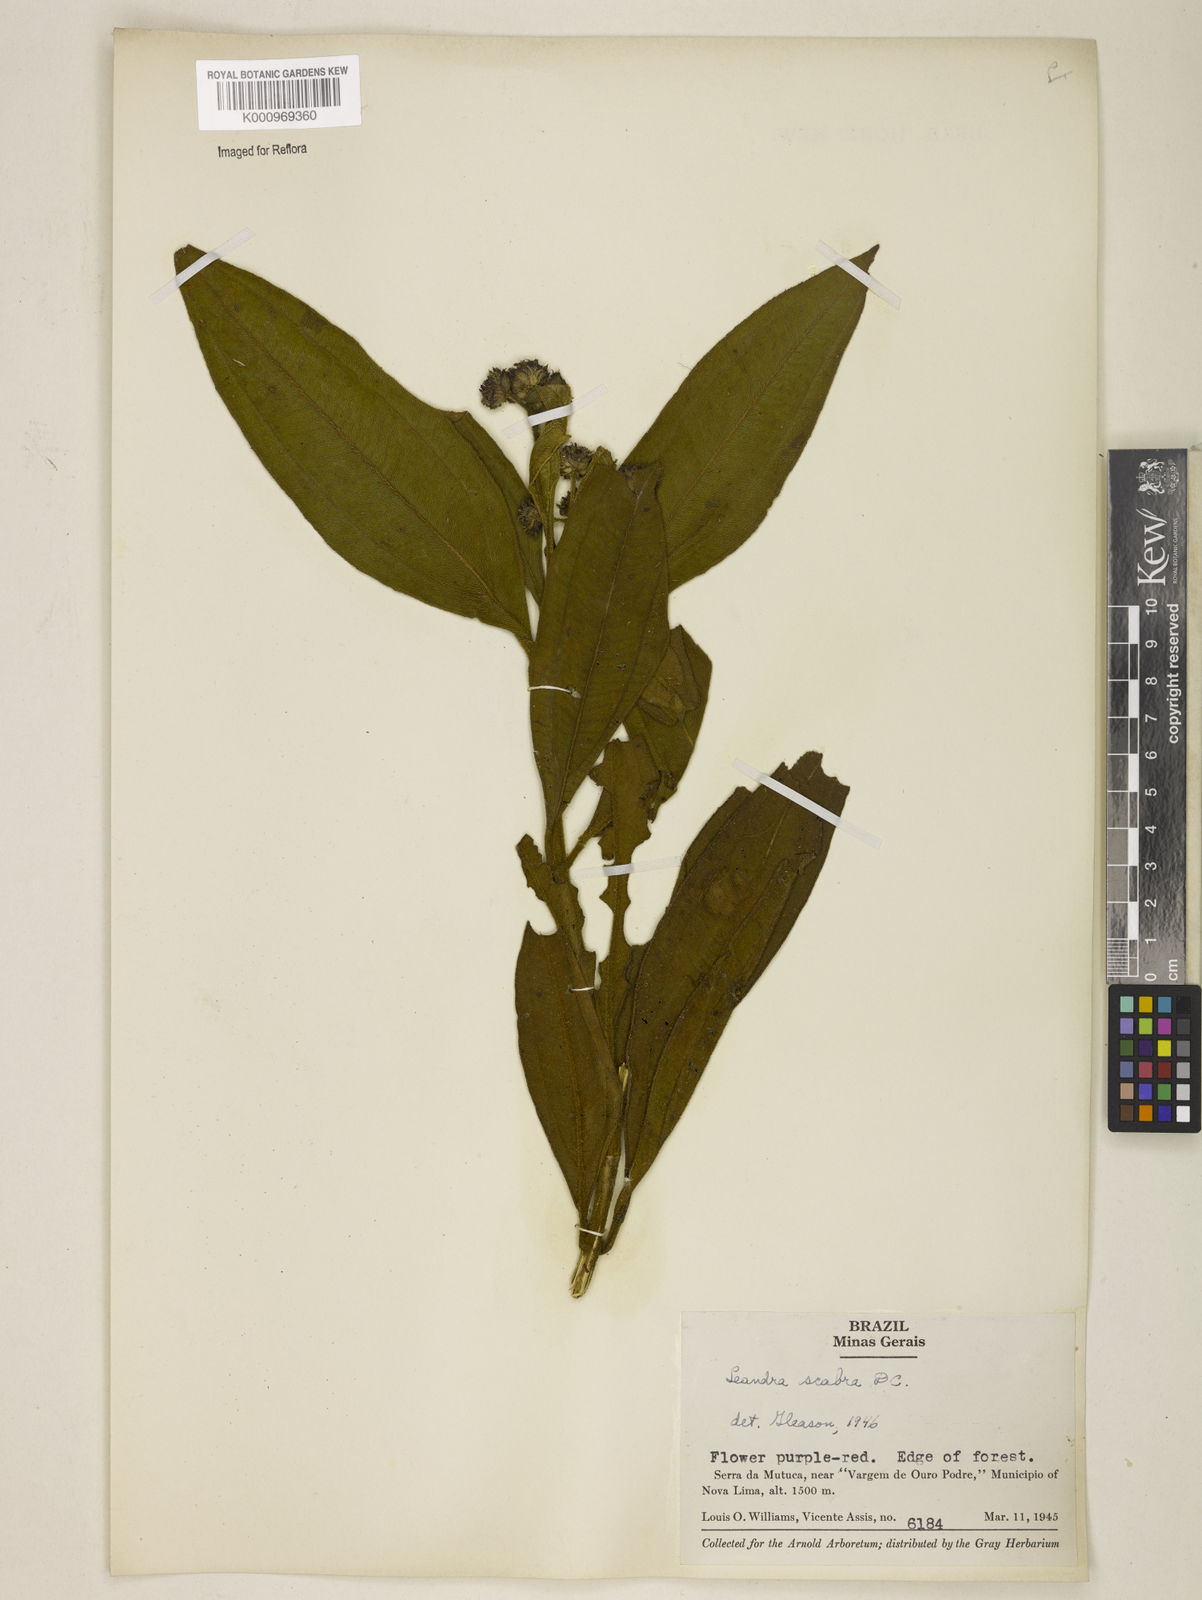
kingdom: Plantae
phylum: Tracheophyta
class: Magnoliopsida
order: Myrtales
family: Melastomataceae
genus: Miconia
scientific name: Miconia melastomoides
